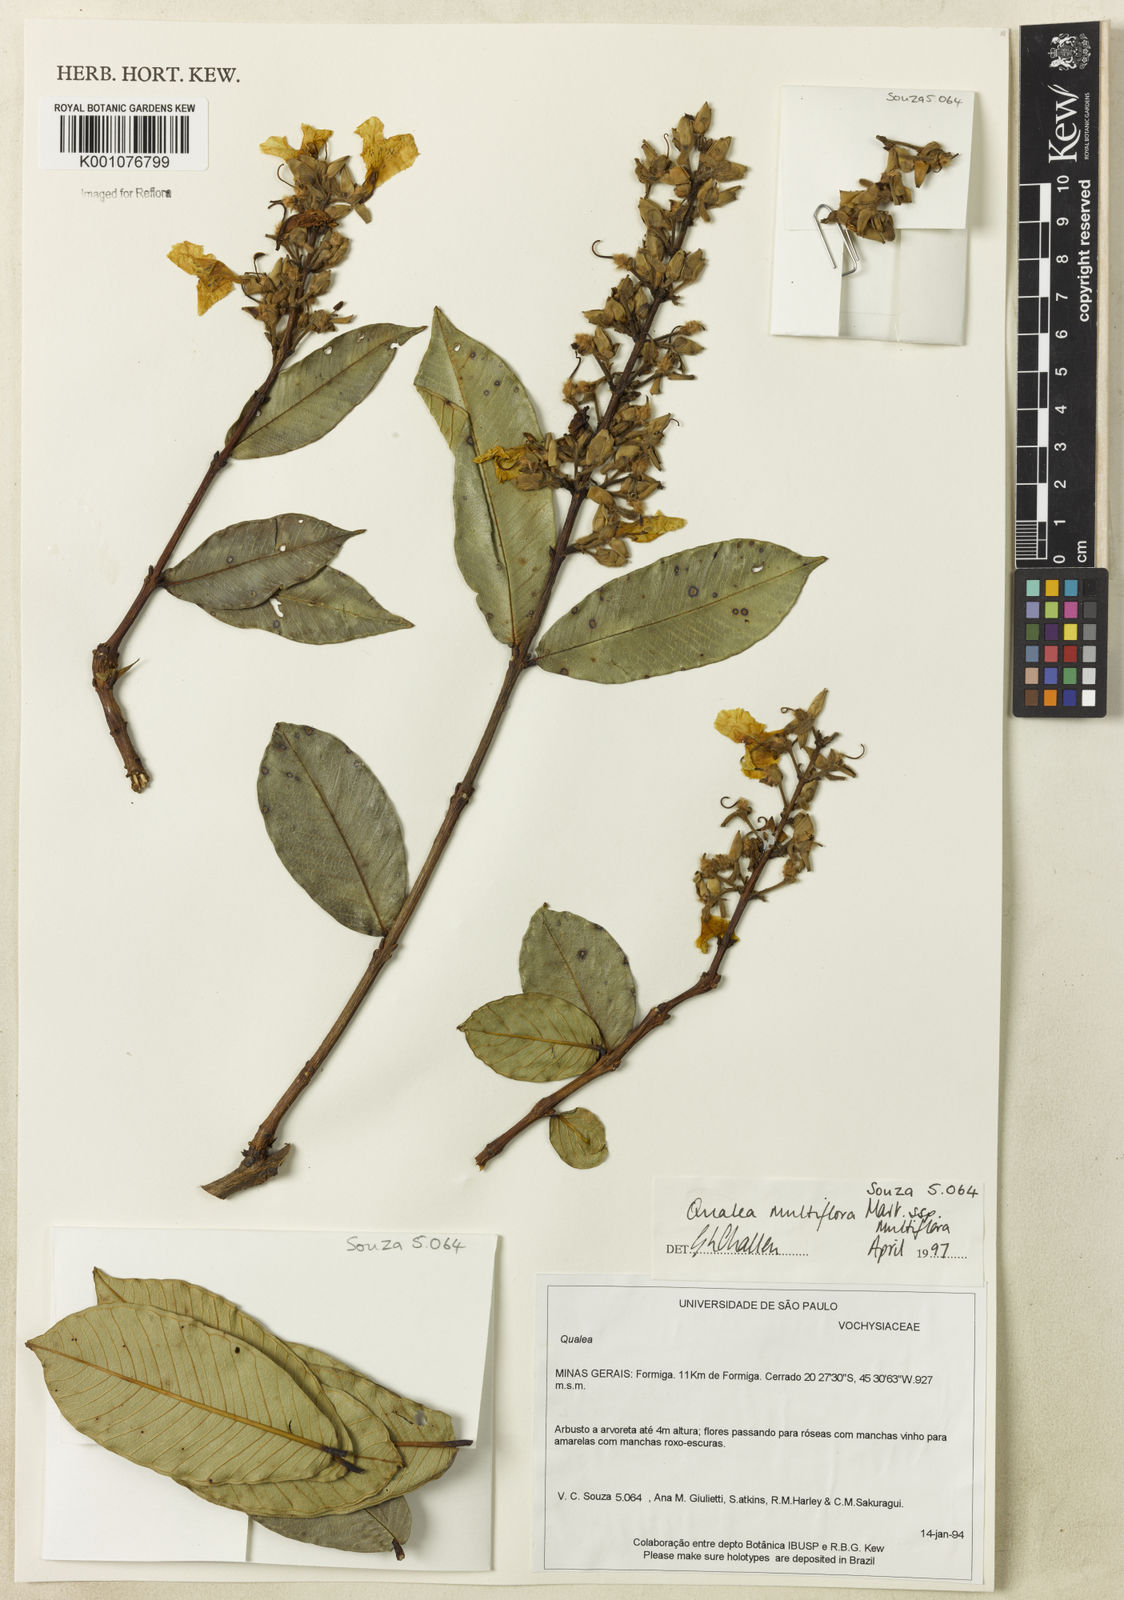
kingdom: Plantae
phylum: Tracheophyta
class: Magnoliopsida
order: Myrtales
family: Vochysiaceae
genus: Qualea
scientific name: Qualea multiflora
